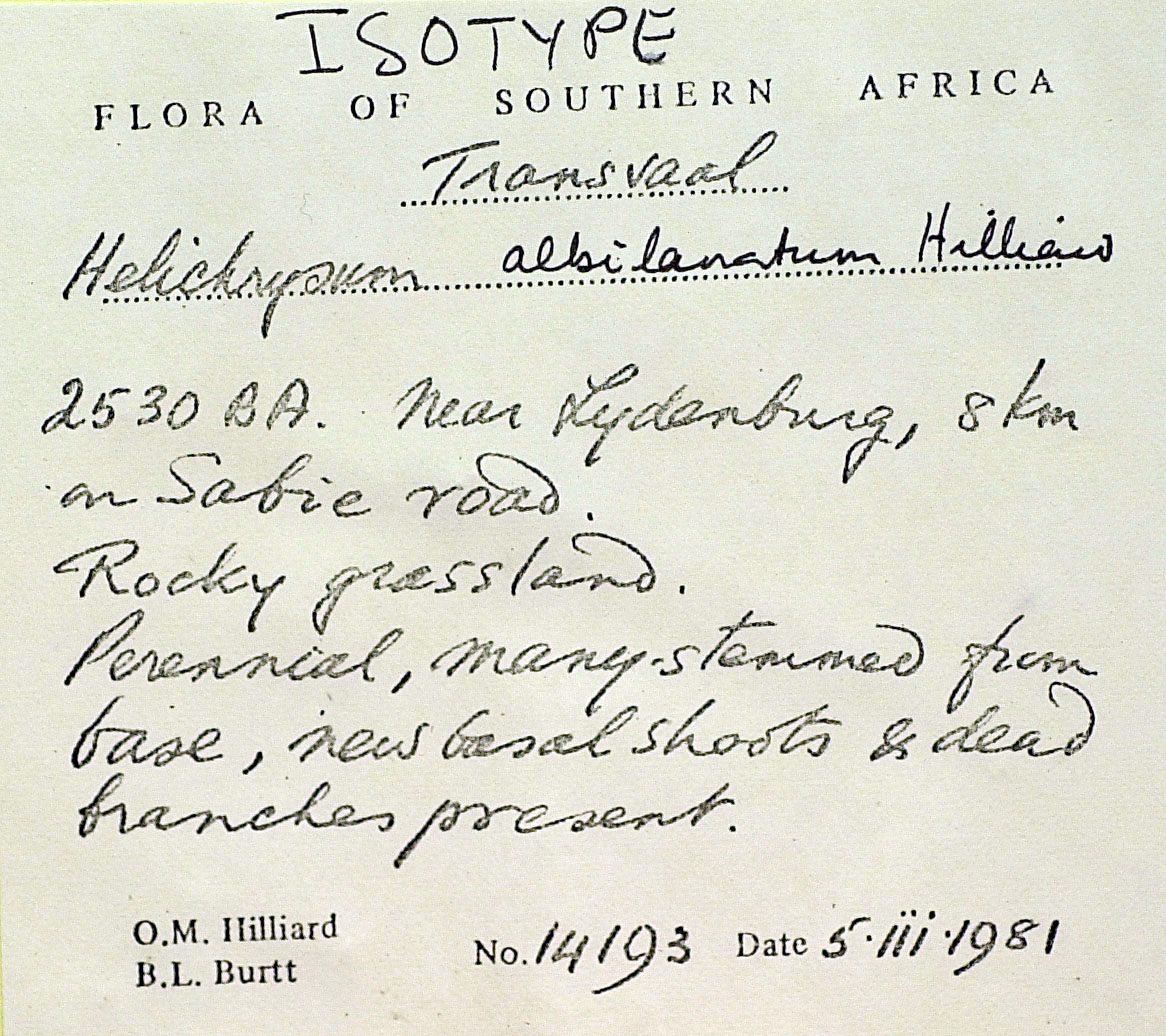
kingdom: Plantae
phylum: Tracheophyta
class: Magnoliopsida
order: Asterales
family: Asteraceae
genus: Helichrysum
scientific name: Helichrysum albilanatum
